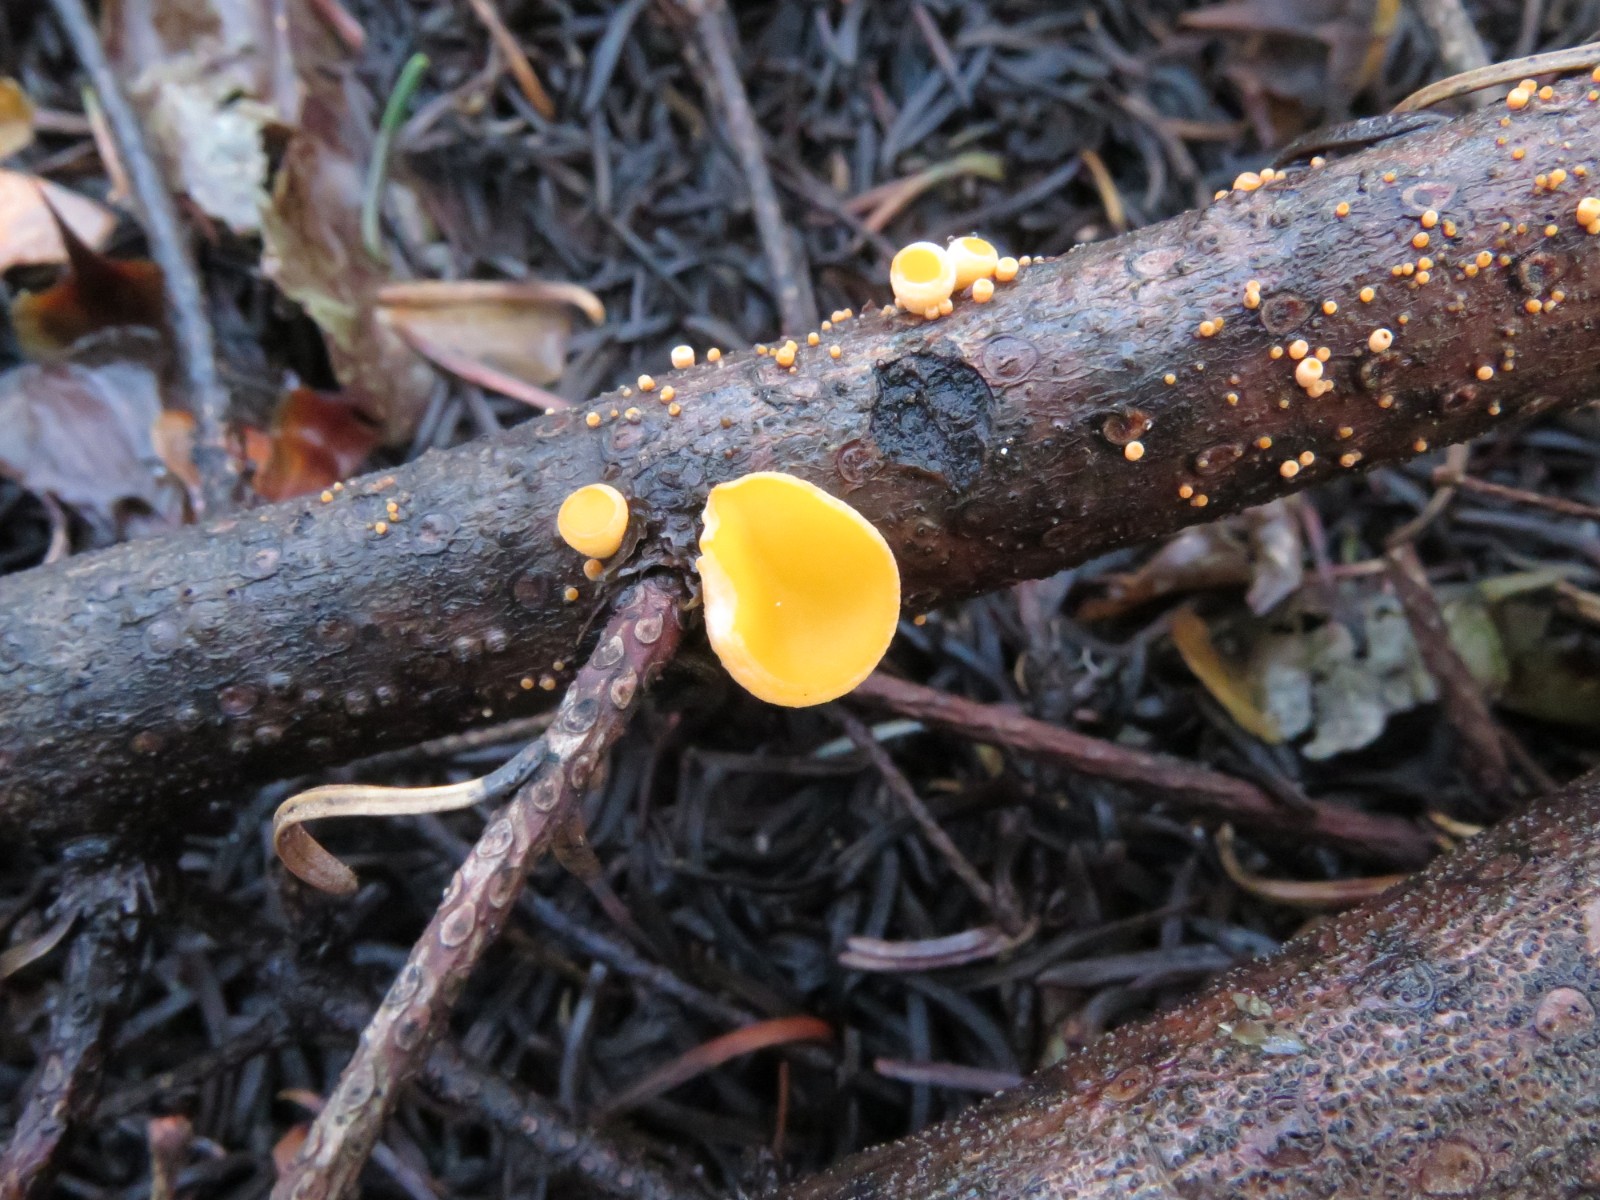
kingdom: Fungi
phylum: Ascomycota
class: Pezizomycetes
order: Pezizales
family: Sarcoscyphaceae
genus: Pithya
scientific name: Pithya vulgaris
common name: stor dukatbæger
